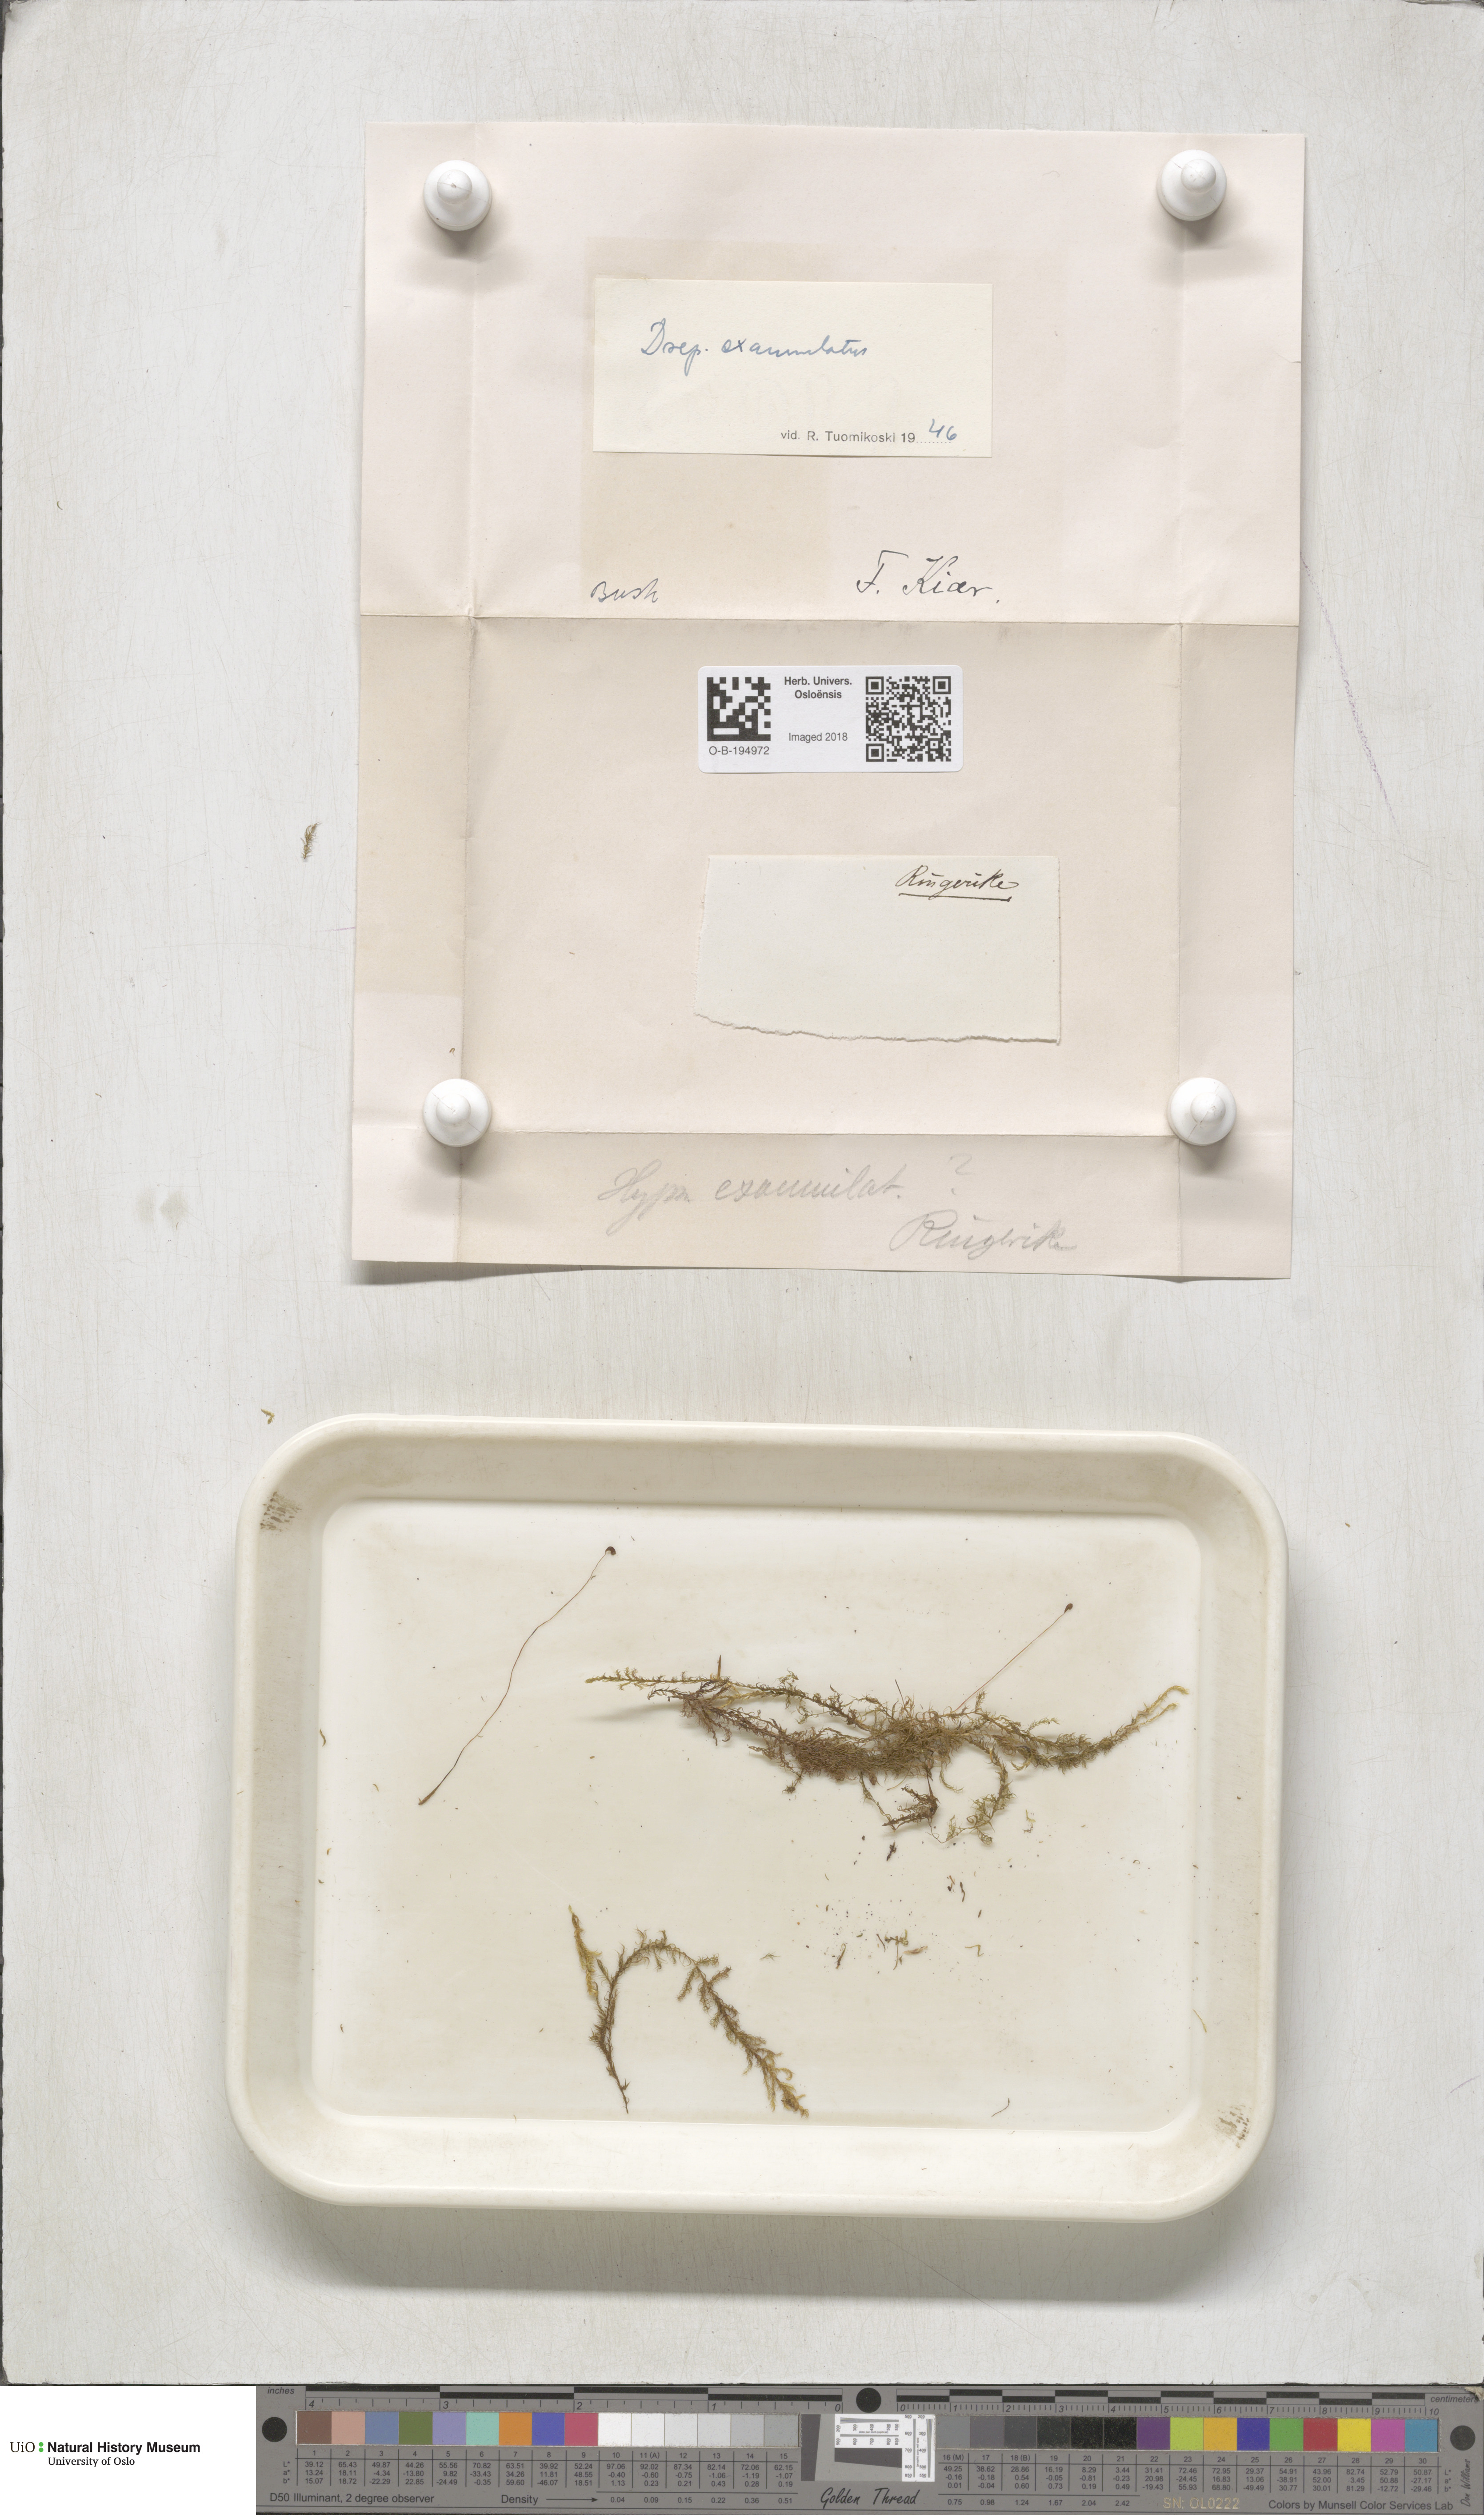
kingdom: Plantae
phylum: Bryophyta
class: Bryopsida
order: Hypnales
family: Calliergonaceae
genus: Sarmentypnum
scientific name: Sarmentypnum exannulatum
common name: Ringless spoon moss
